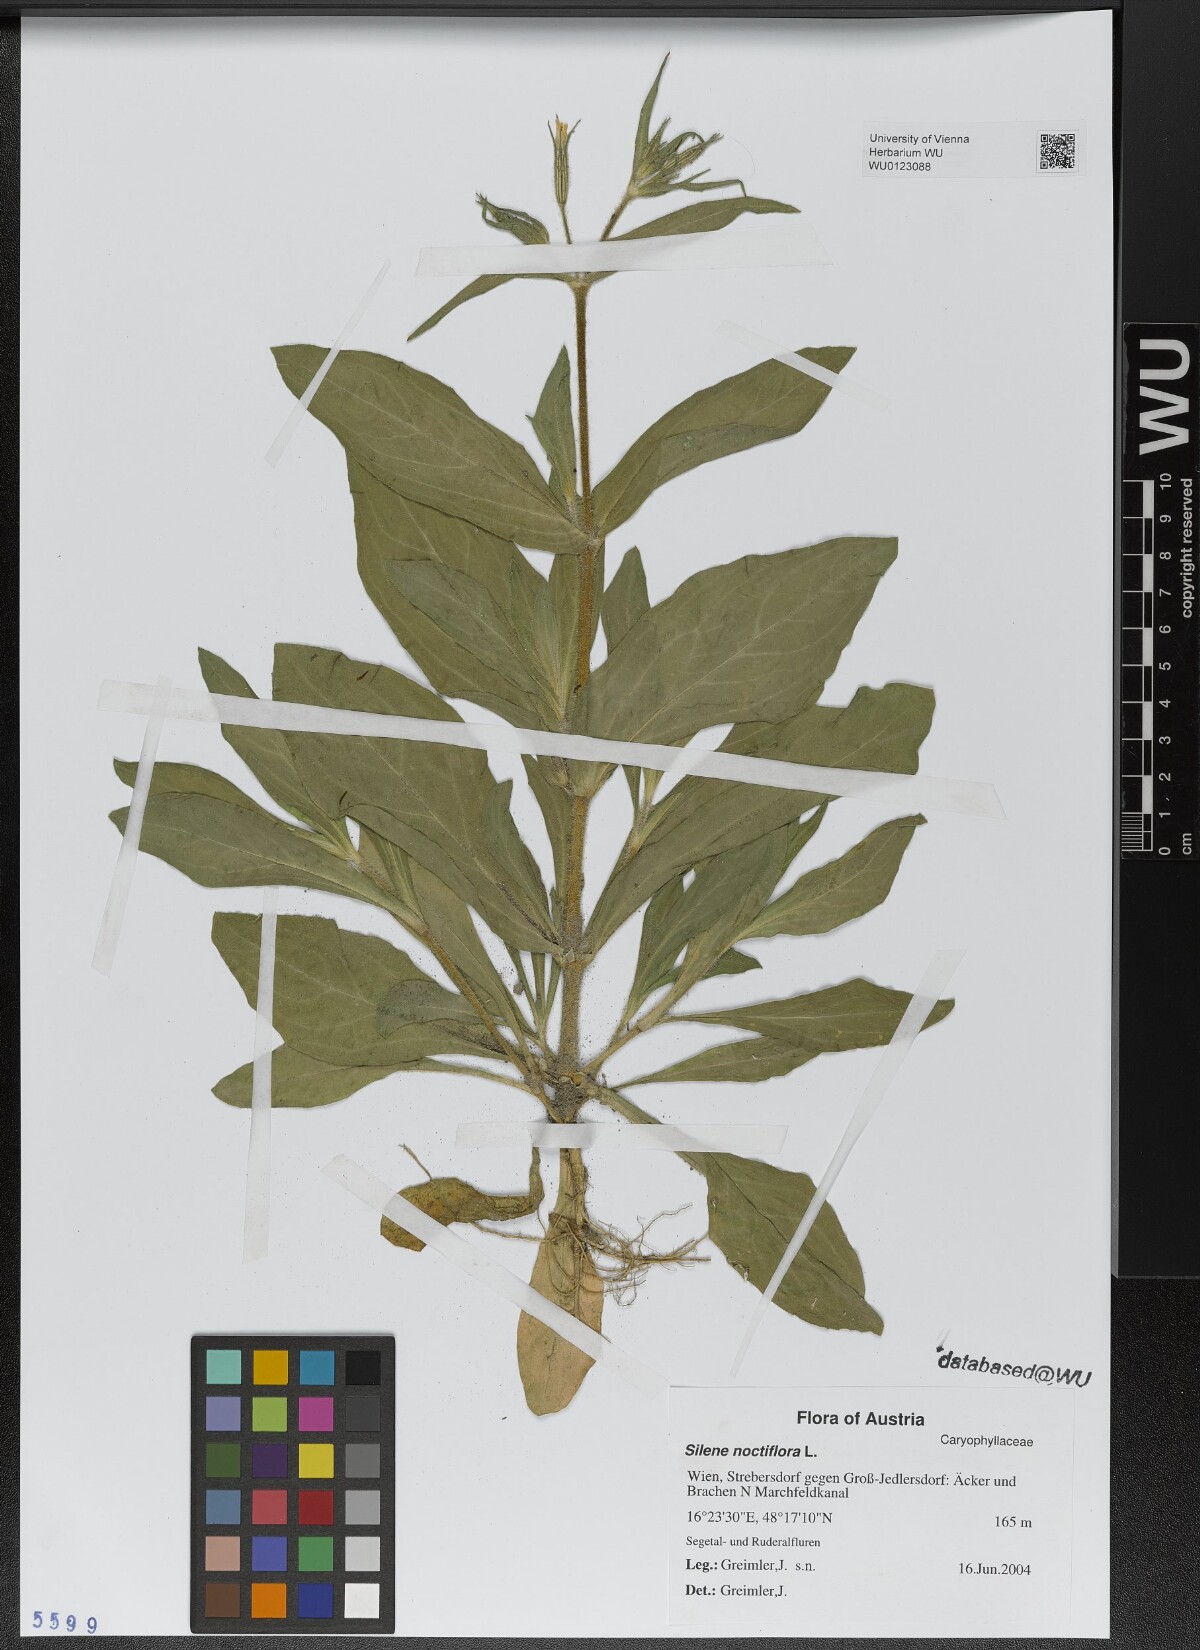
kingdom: Plantae
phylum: Tracheophyta
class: Magnoliopsida
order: Caryophyllales
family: Caryophyllaceae
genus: Silene
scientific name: Silene noctiflora
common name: Night-flowering catchfly
